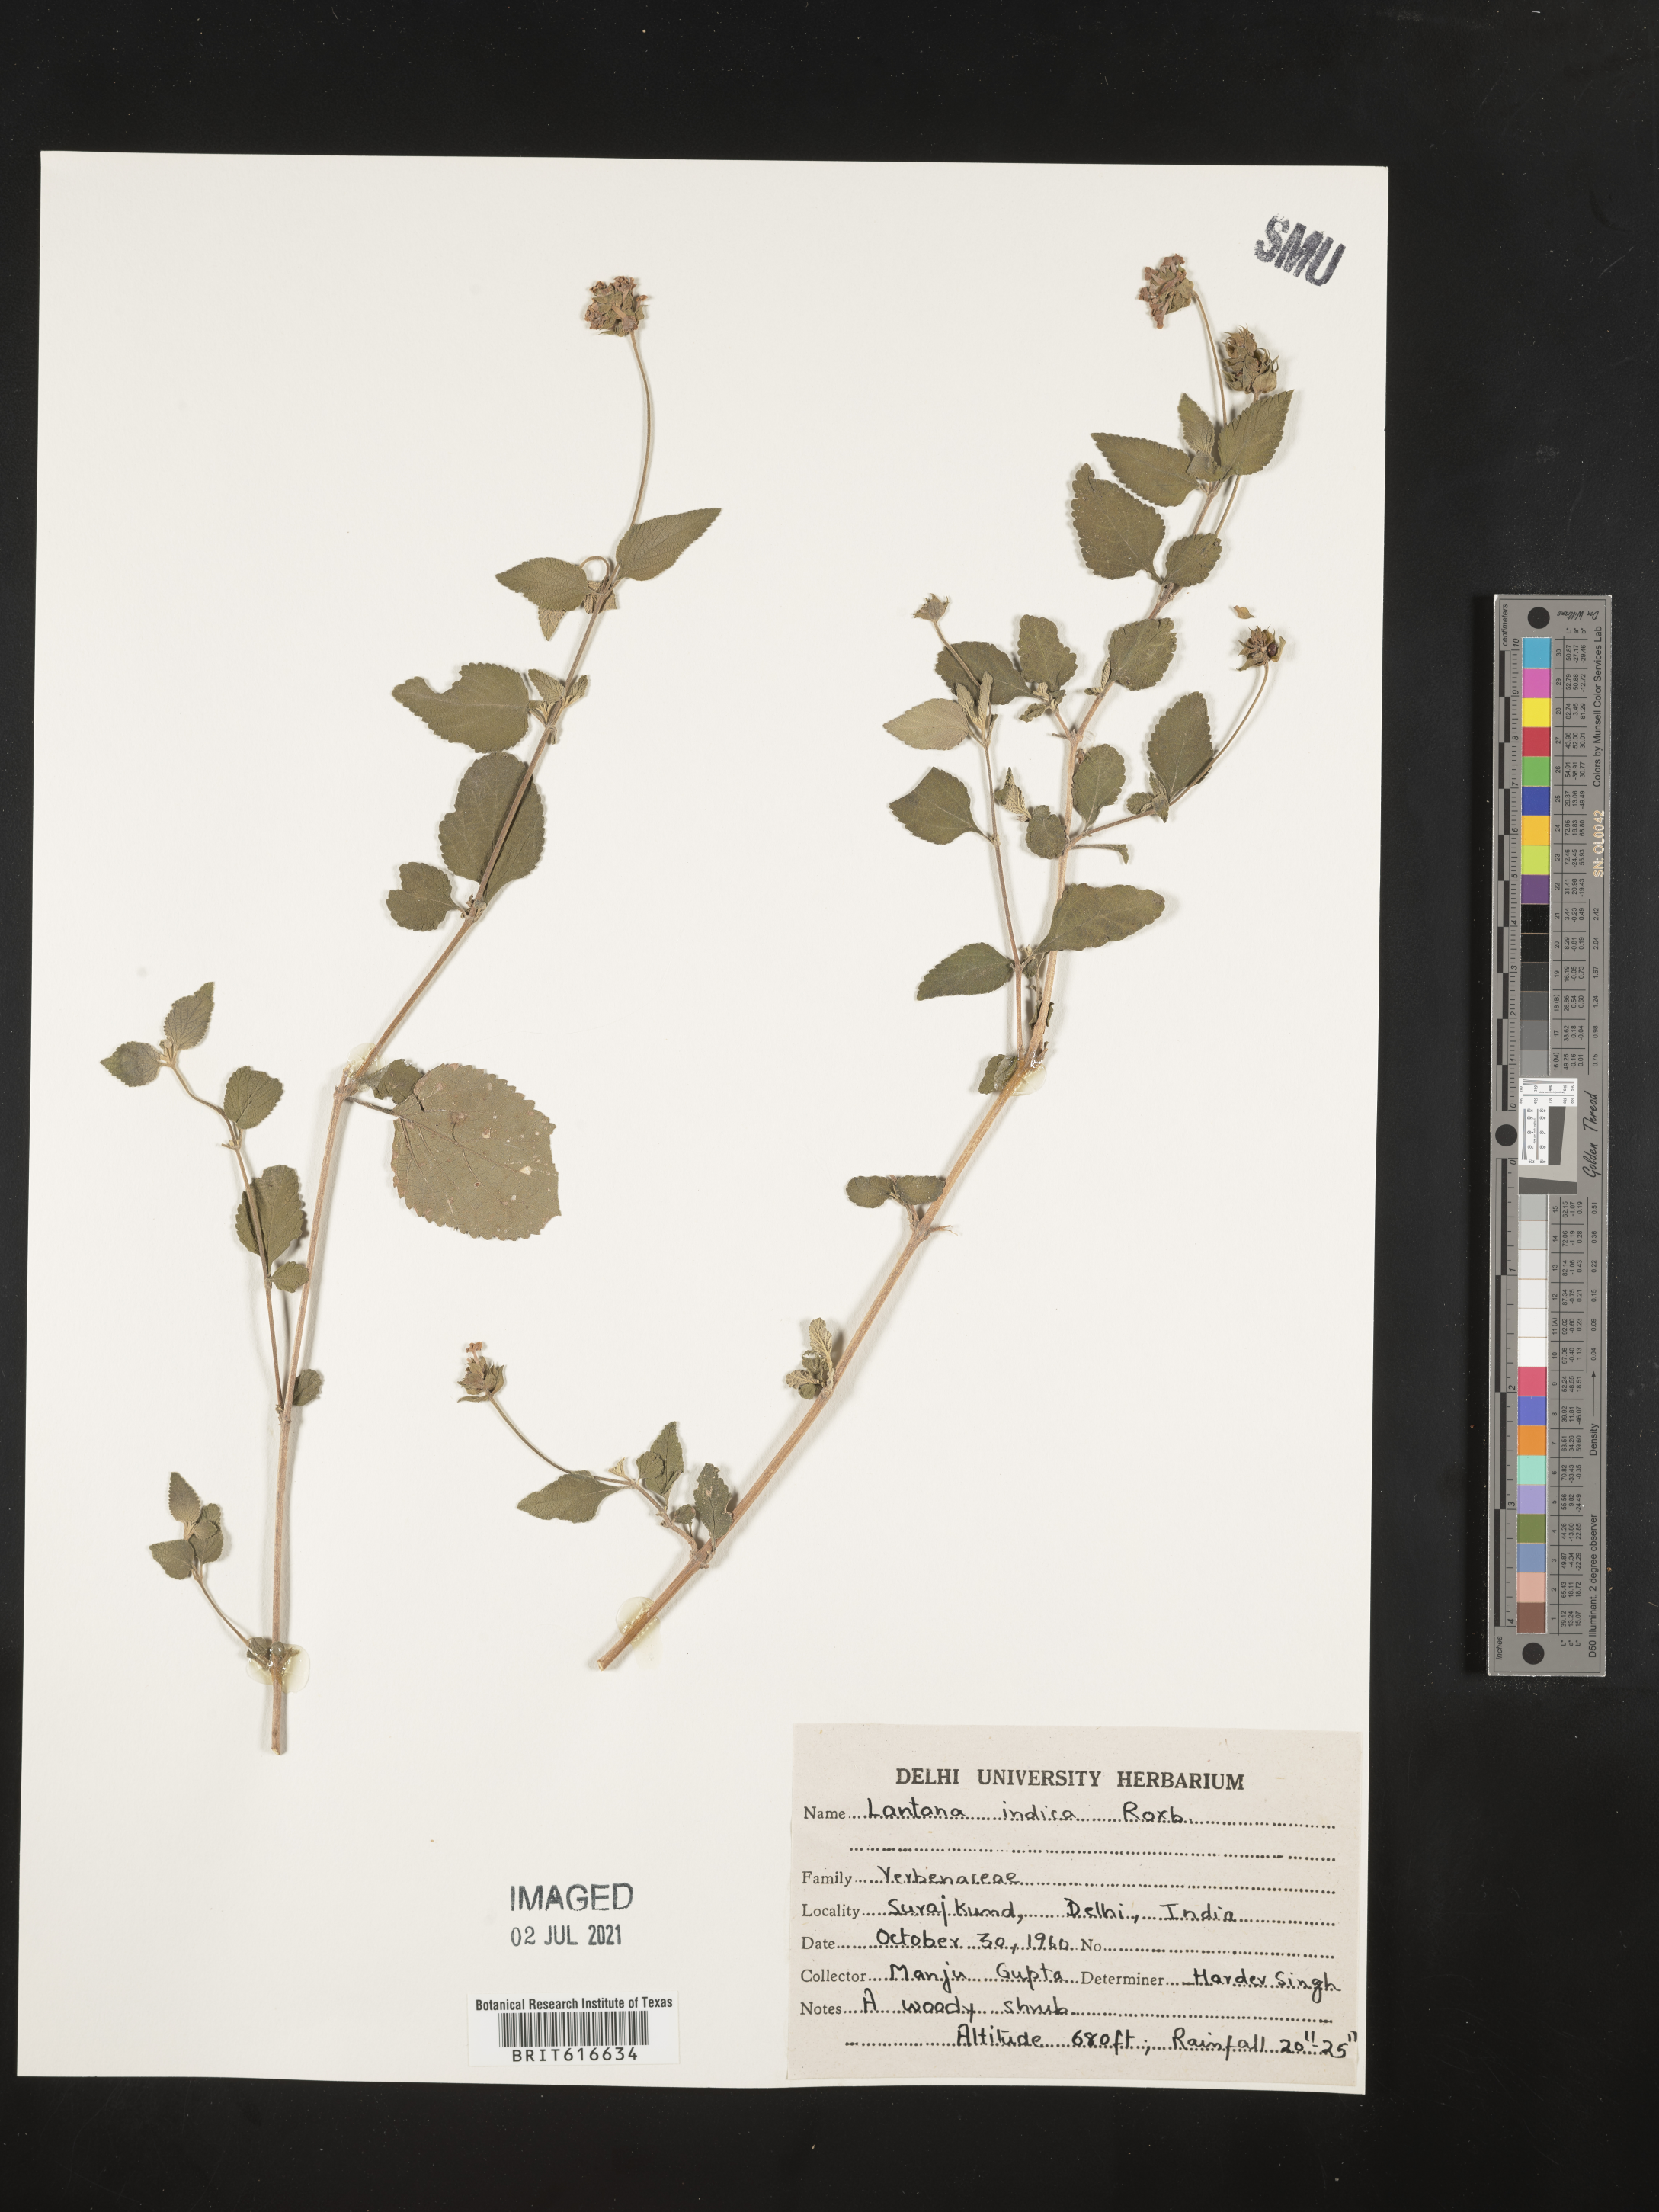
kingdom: Plantae
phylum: Tracheophyta
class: Magnoliopsida
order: Lamiales
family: Verbenaceae
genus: Lantana
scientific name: Lantana indica
